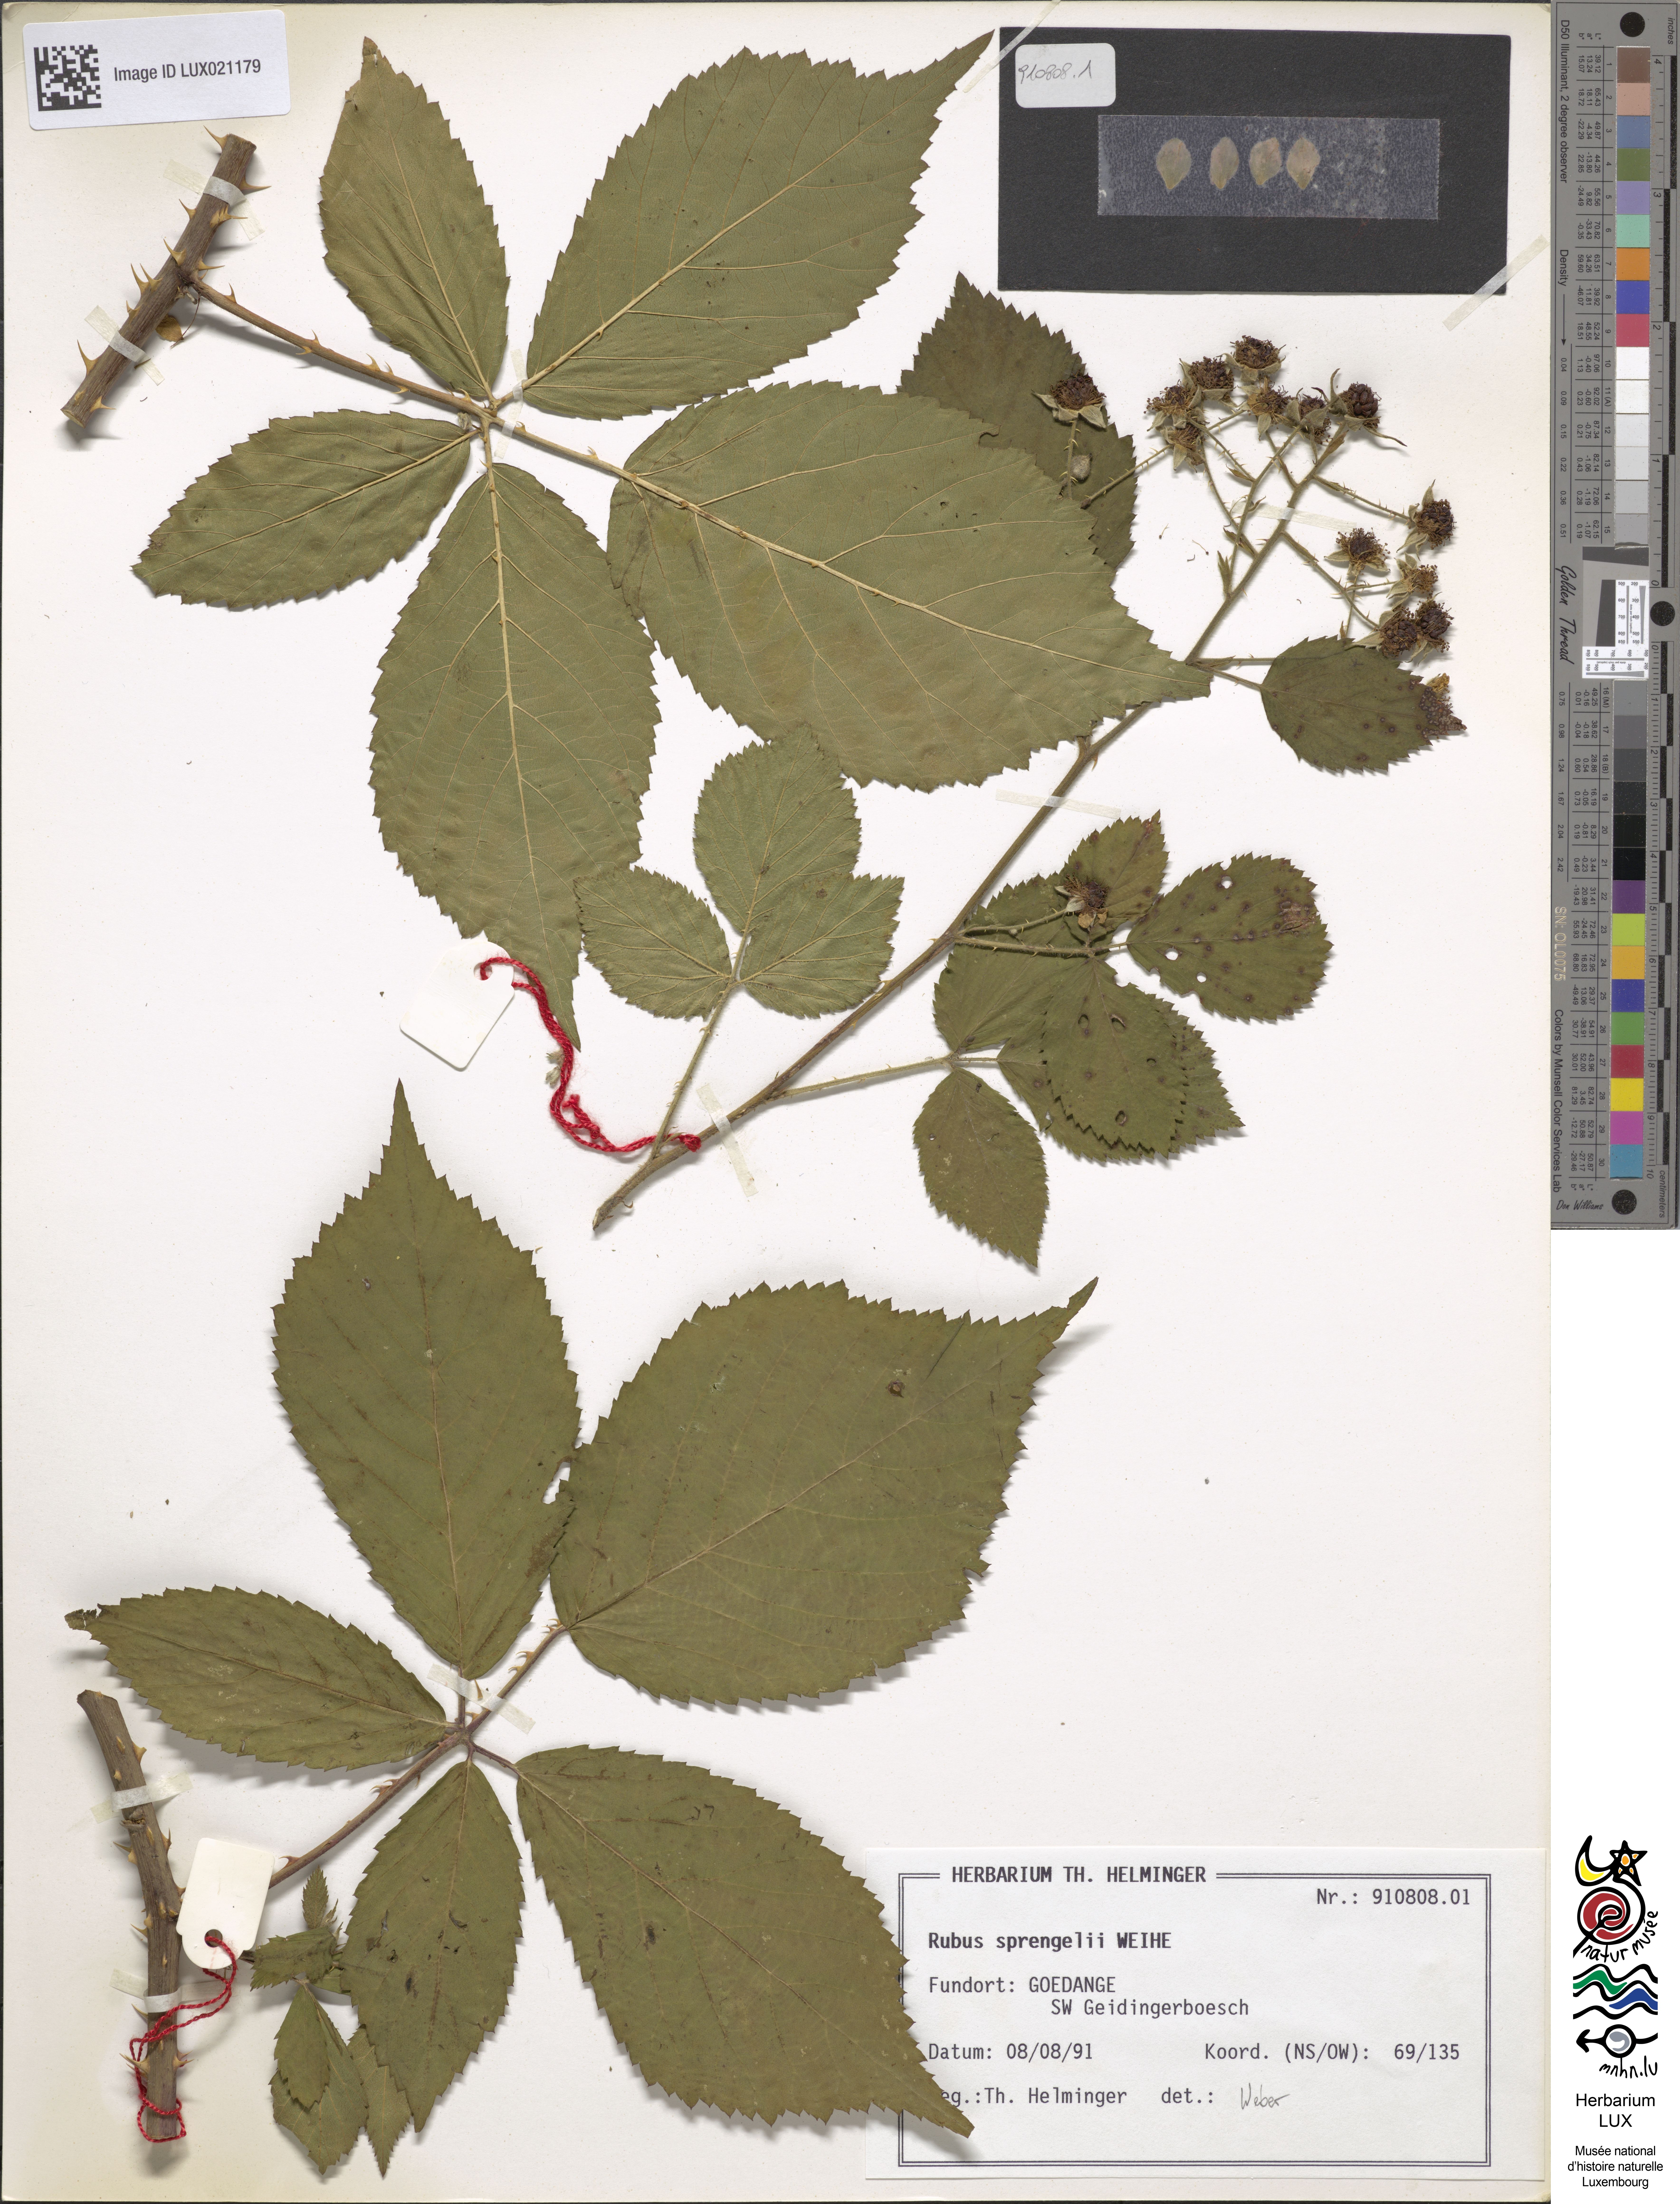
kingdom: Plantae
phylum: Tracheophyta
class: Magnoliopsida
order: Rosales
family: Rosaceae
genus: Rubus
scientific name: Rubus sprengelii
